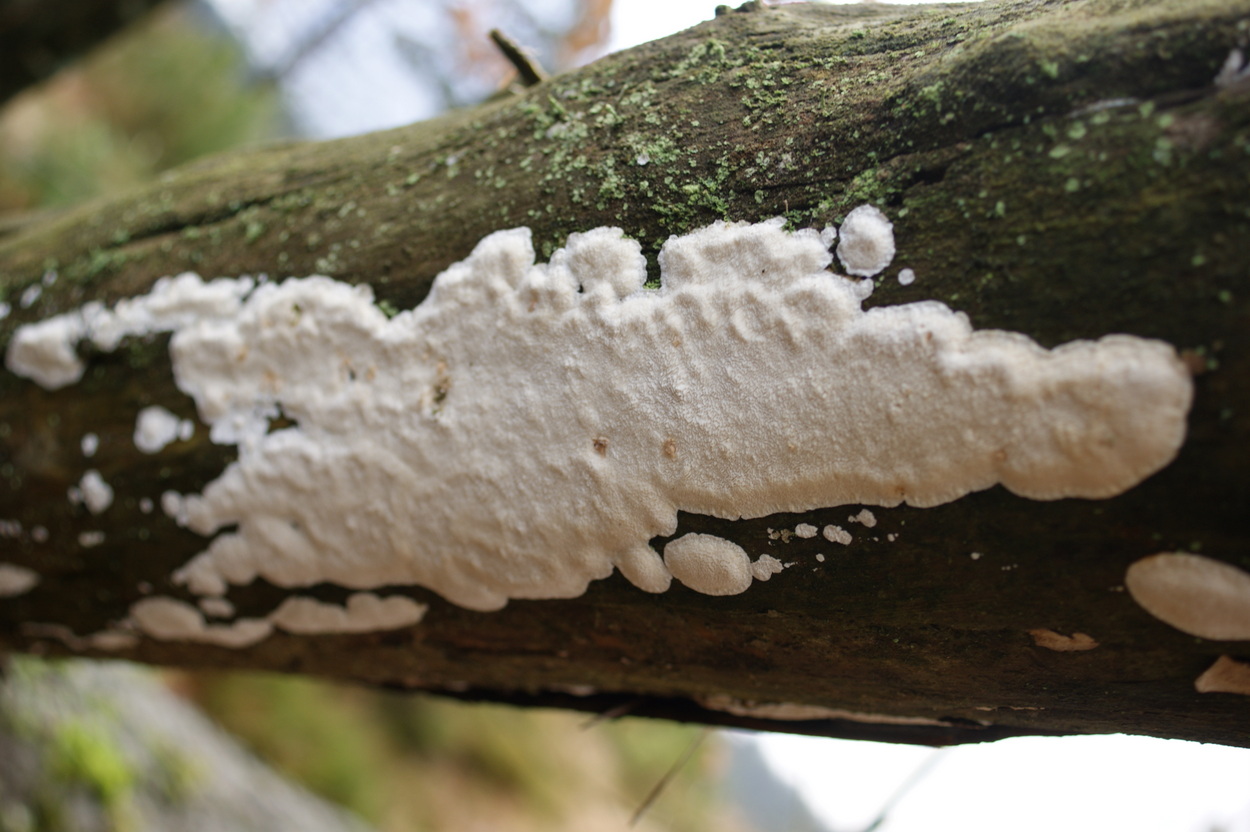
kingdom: Fungi
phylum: Basidiomycota
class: Agaricomycetes
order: Polyporales
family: Fomitopsidaceae
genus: Neoantrodia
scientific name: Neoantrodia serialis
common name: række-sejporesvamp
